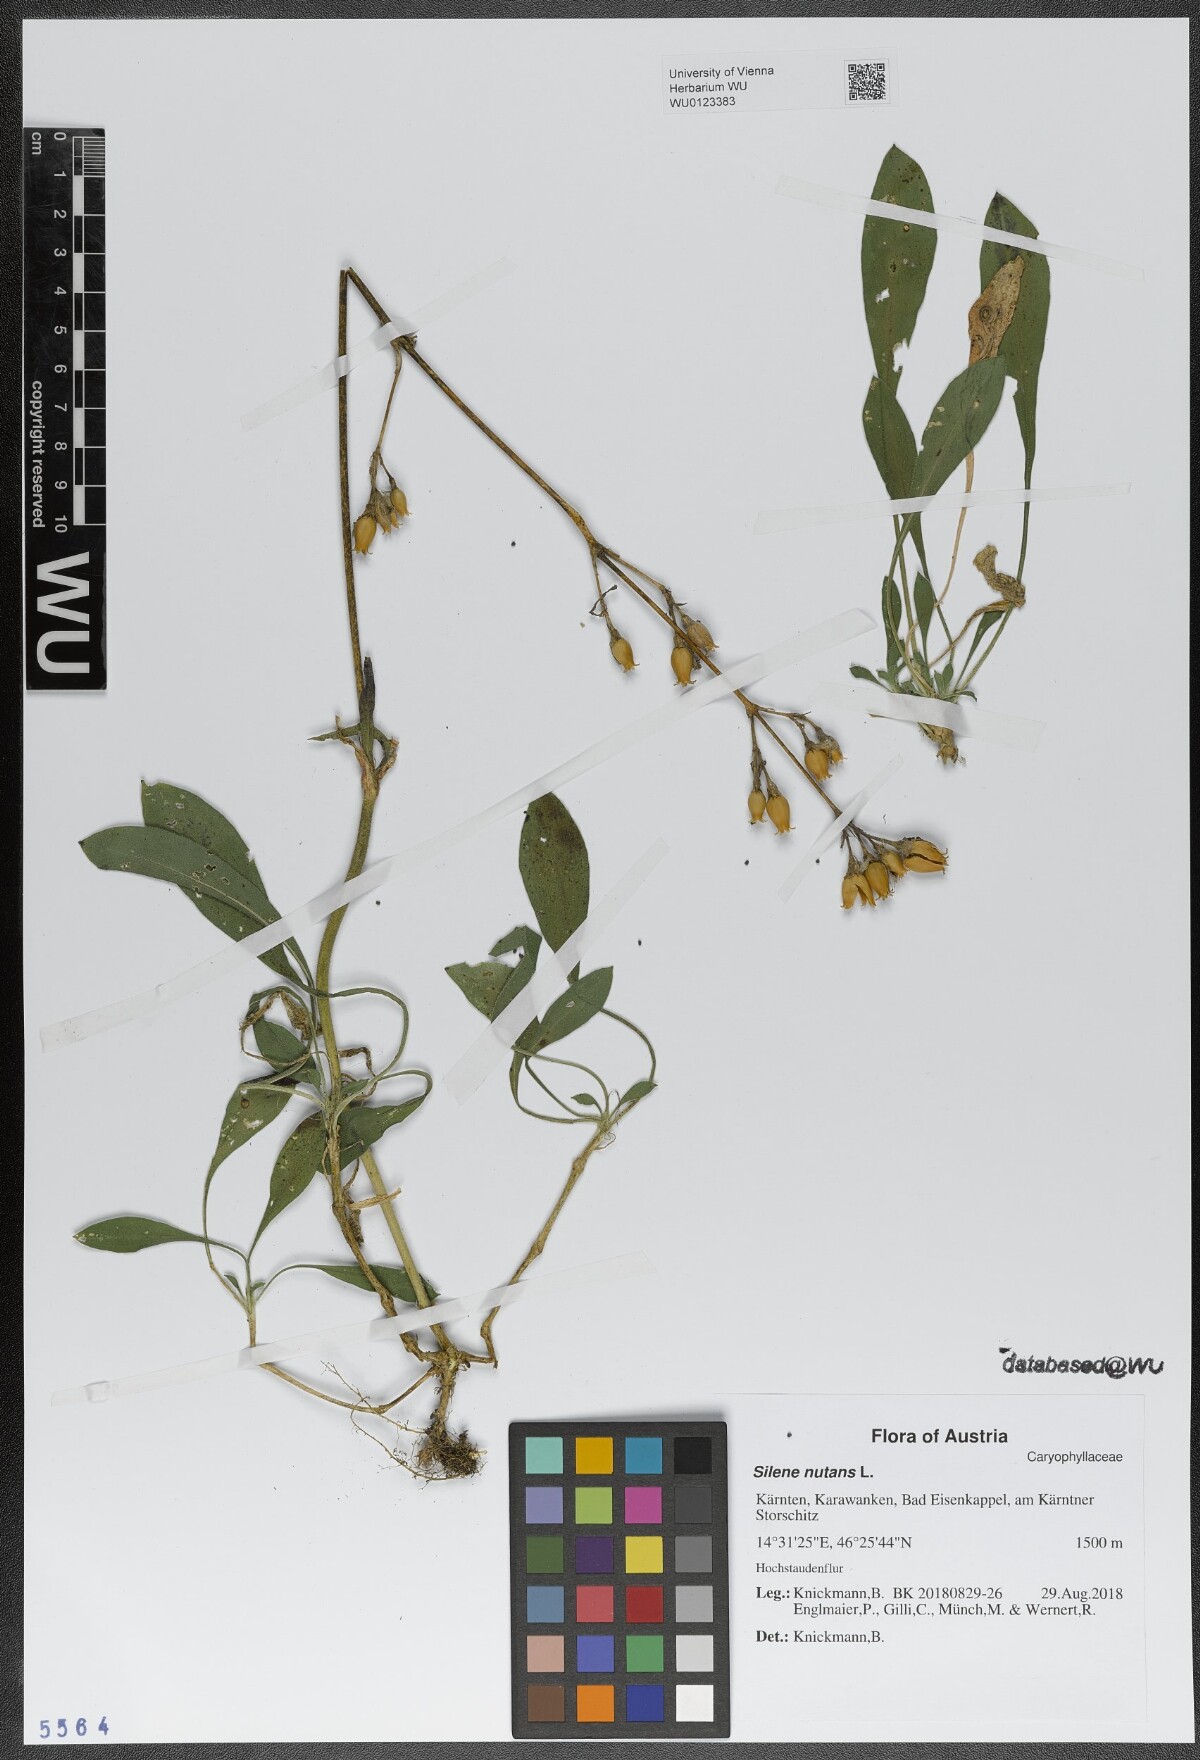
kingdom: Plantae
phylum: Tracheophyta
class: Magnoliopsida
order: Caryophyllales
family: Caryophyllaceae
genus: Silene
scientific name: Silene nutans
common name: Nottingham catchfly
